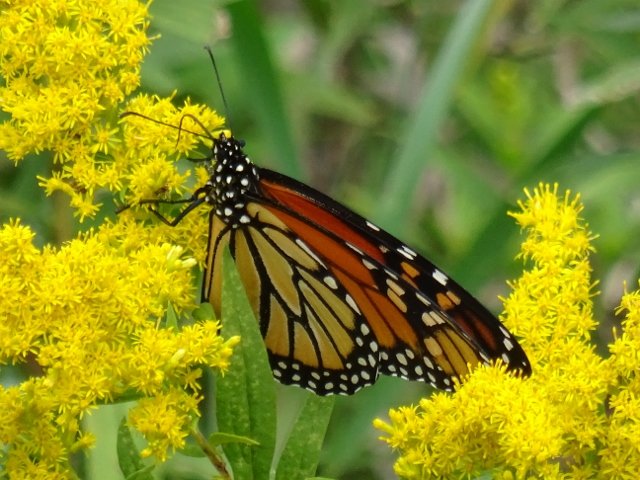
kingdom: Animalia
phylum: Arthropoda
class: Insecta
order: Lepidoptera
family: Nymphalidae
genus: Danaus
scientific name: Danaus plexippus
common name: Monarch
